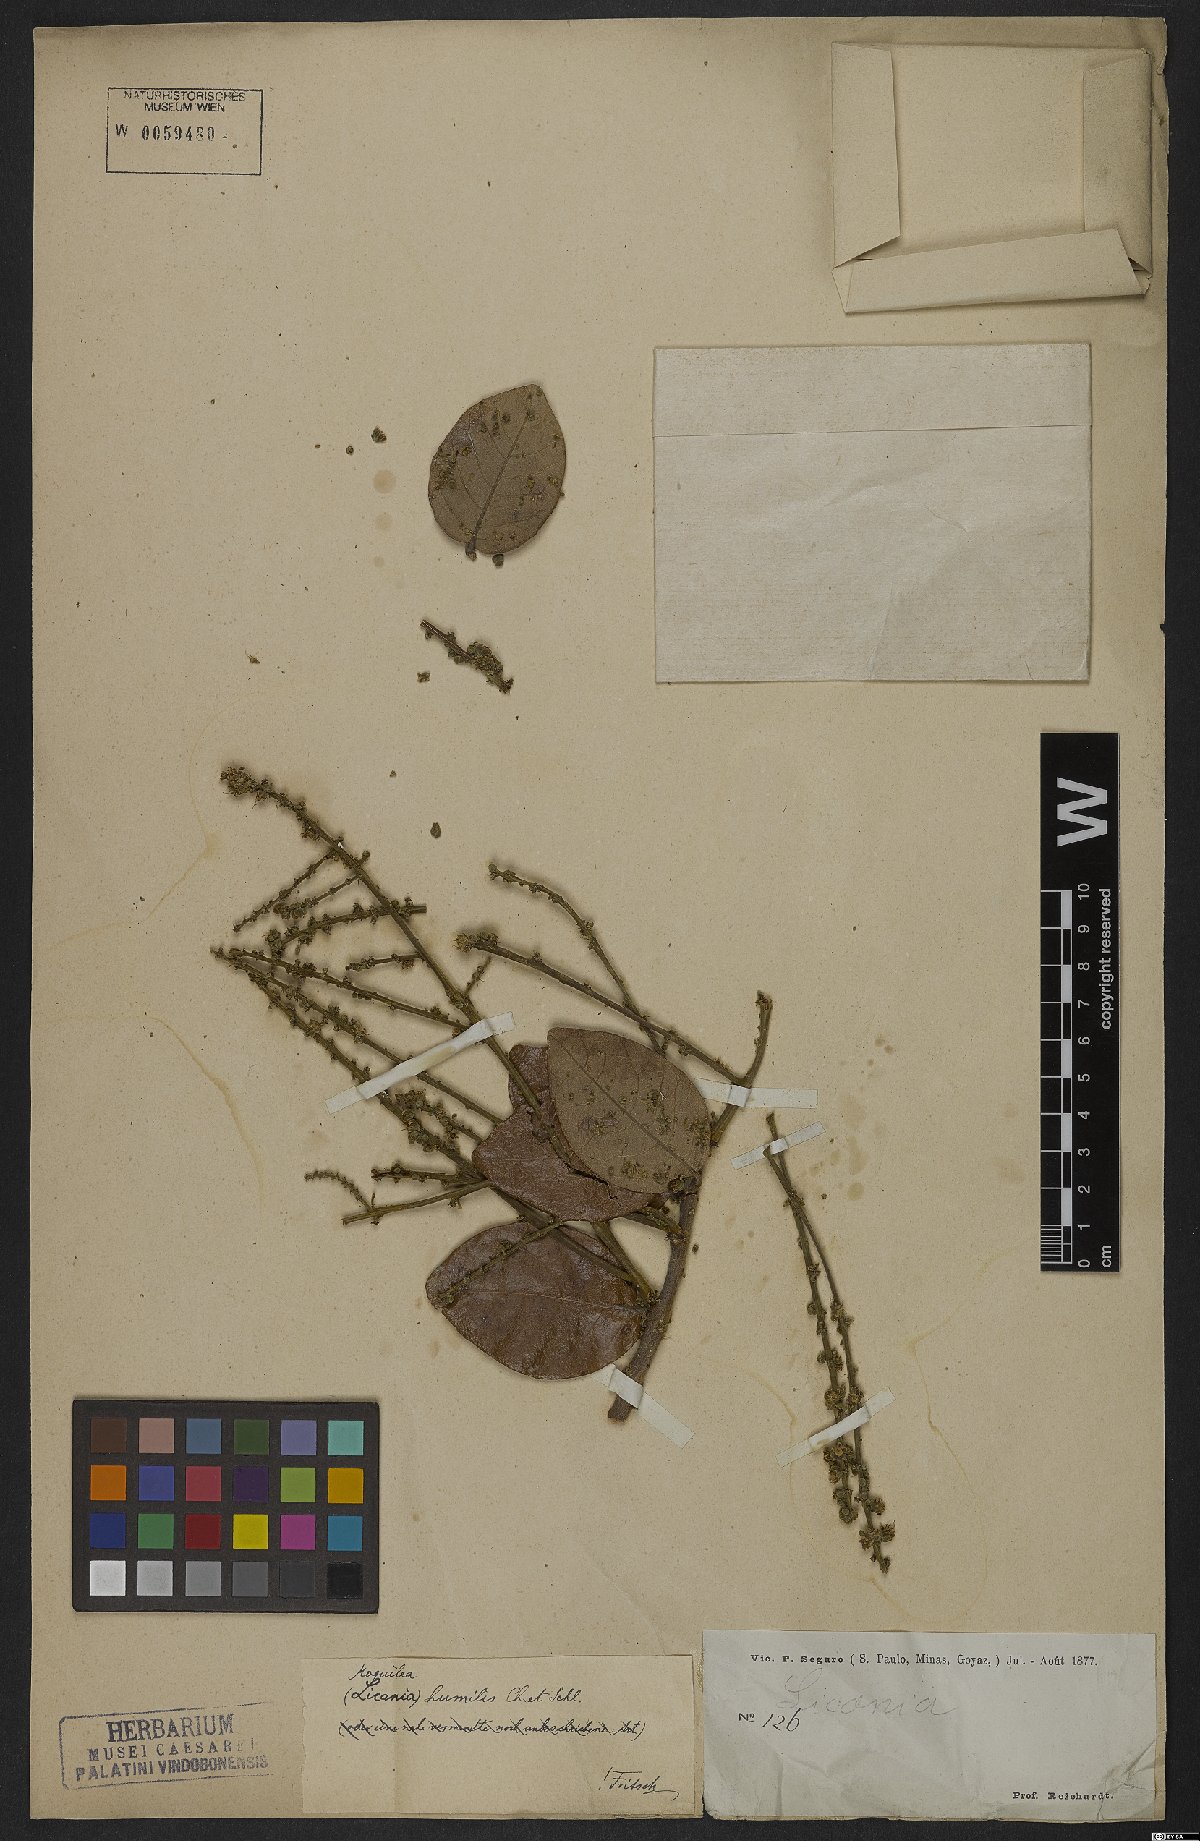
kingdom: Plantae
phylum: Tracheophyta
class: Magnoliopsida
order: Malpighiales
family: Chrysobalanaceae
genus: Leptobalanus
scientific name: Leptobalanus humilis
